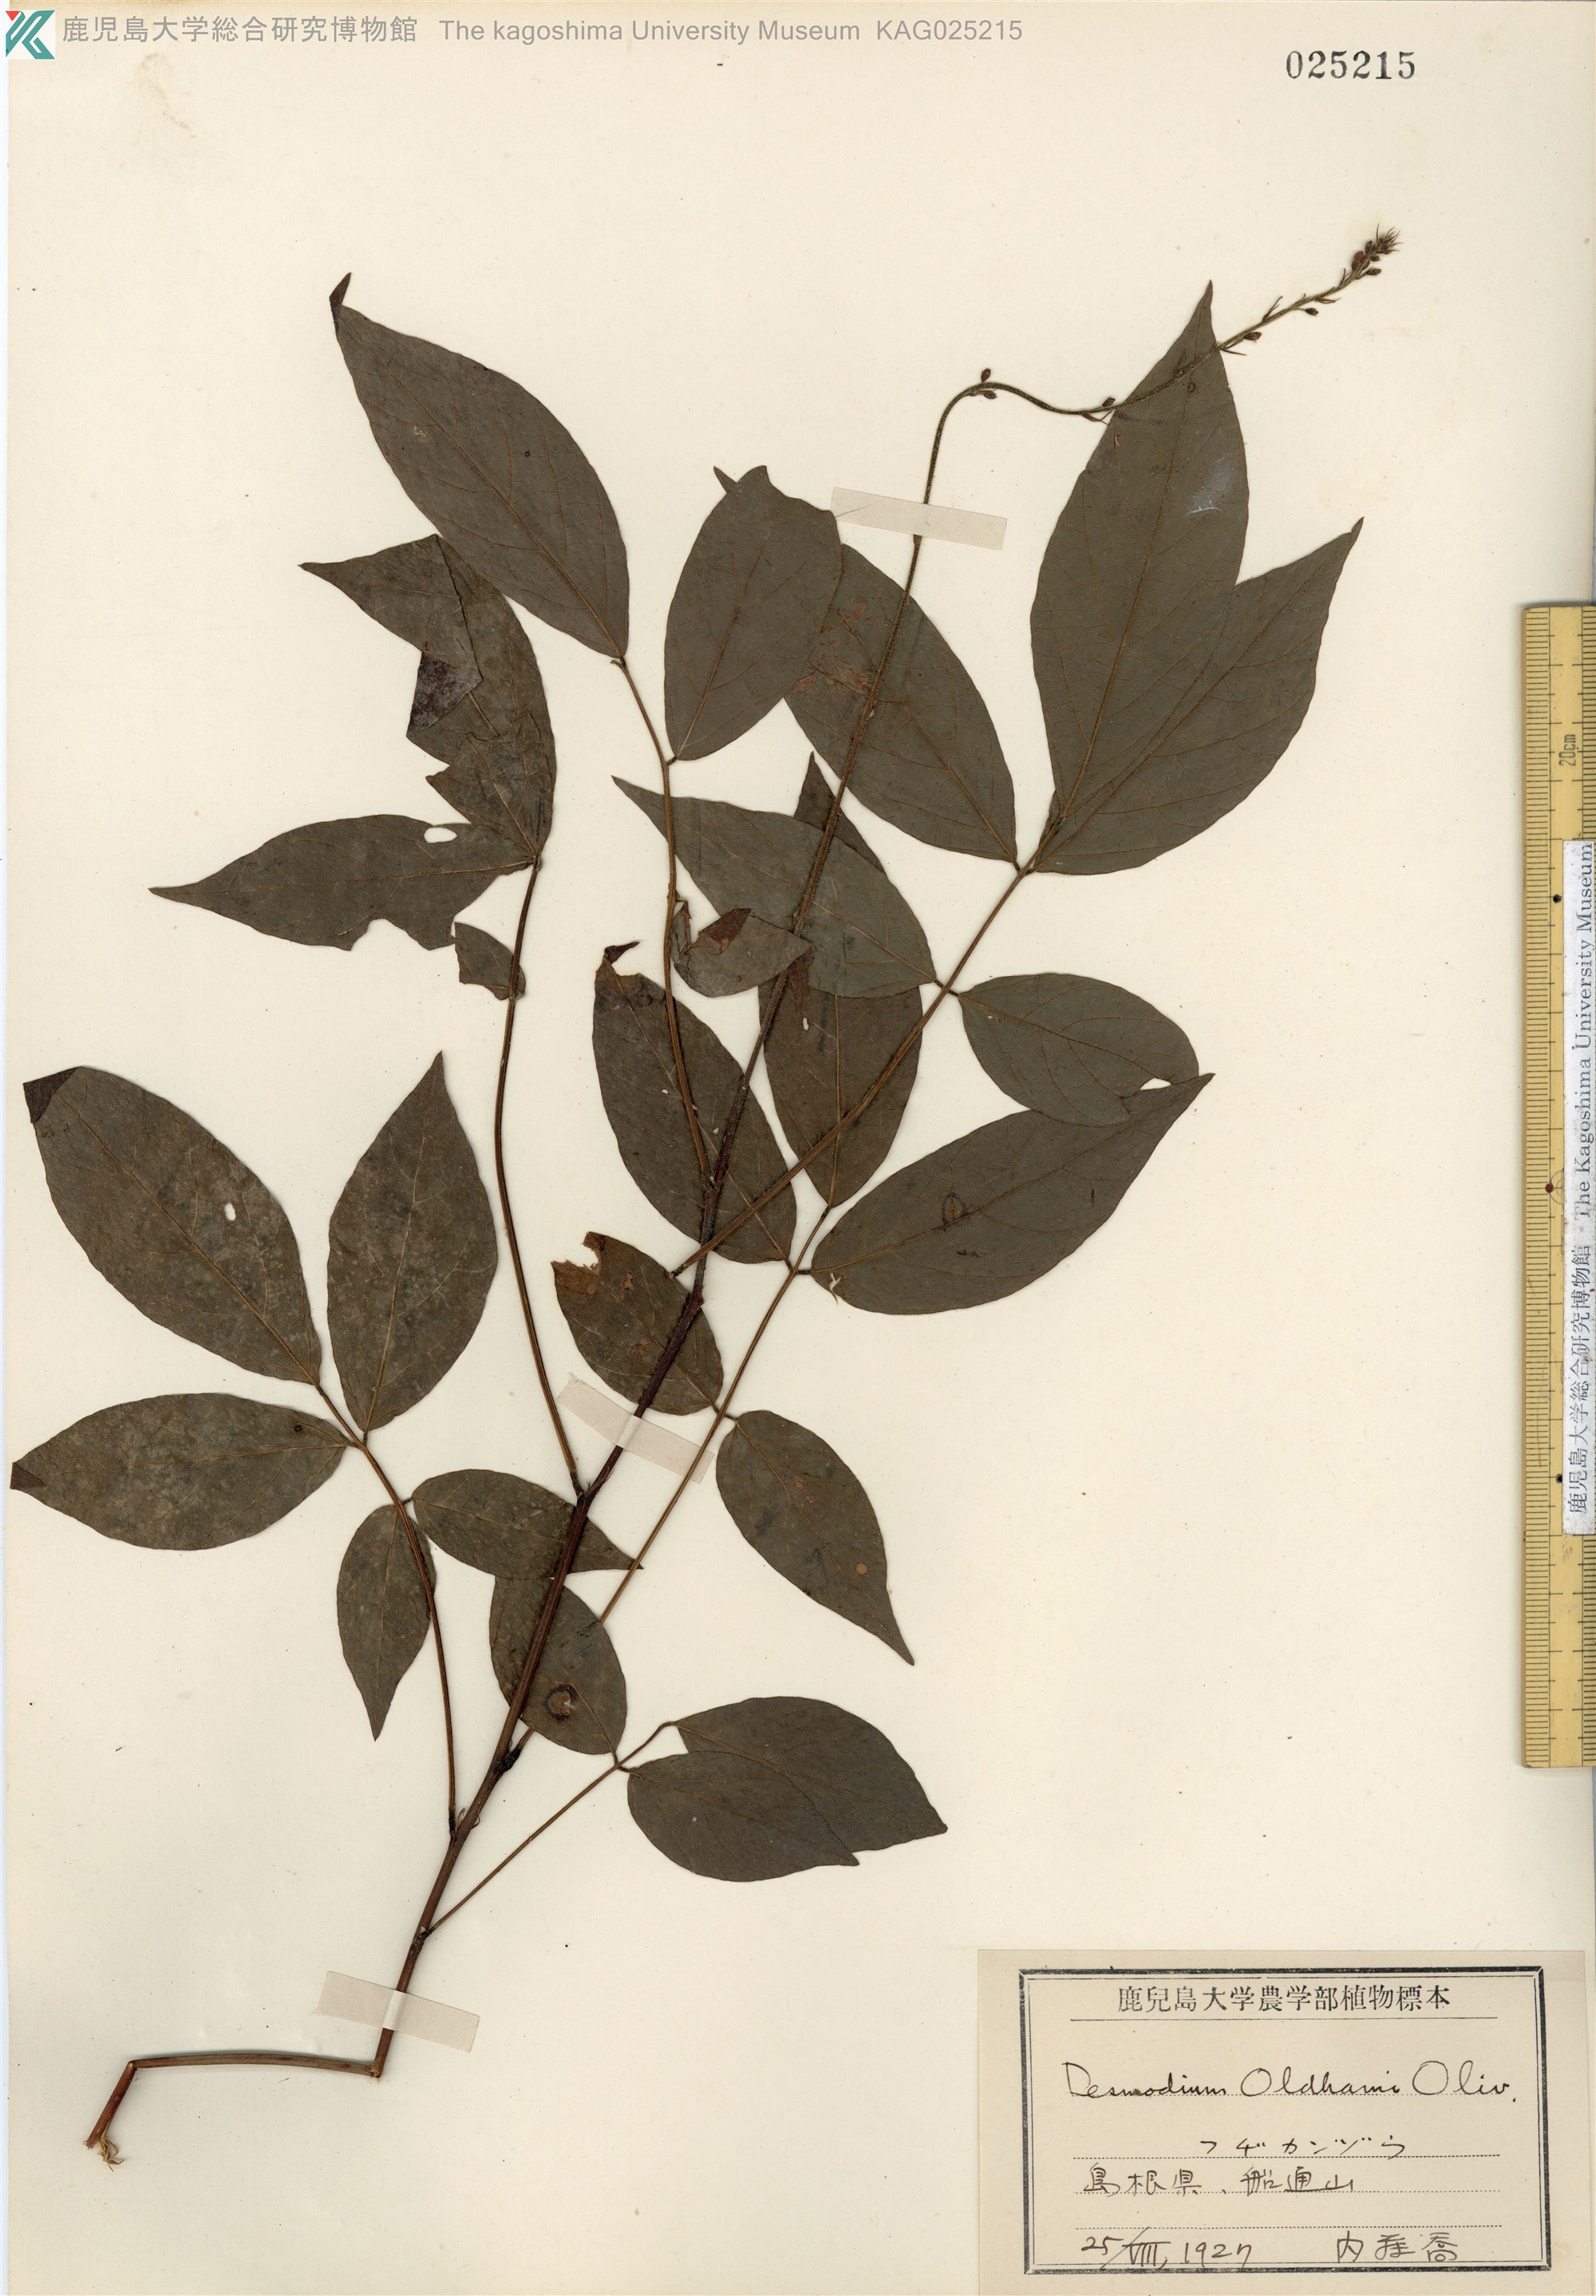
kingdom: Plantae
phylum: Tracheophyta
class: Magnoliopsida
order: Fabales
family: Fabaceae
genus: Hylodesmum
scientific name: Hylodesmum oldhamii
